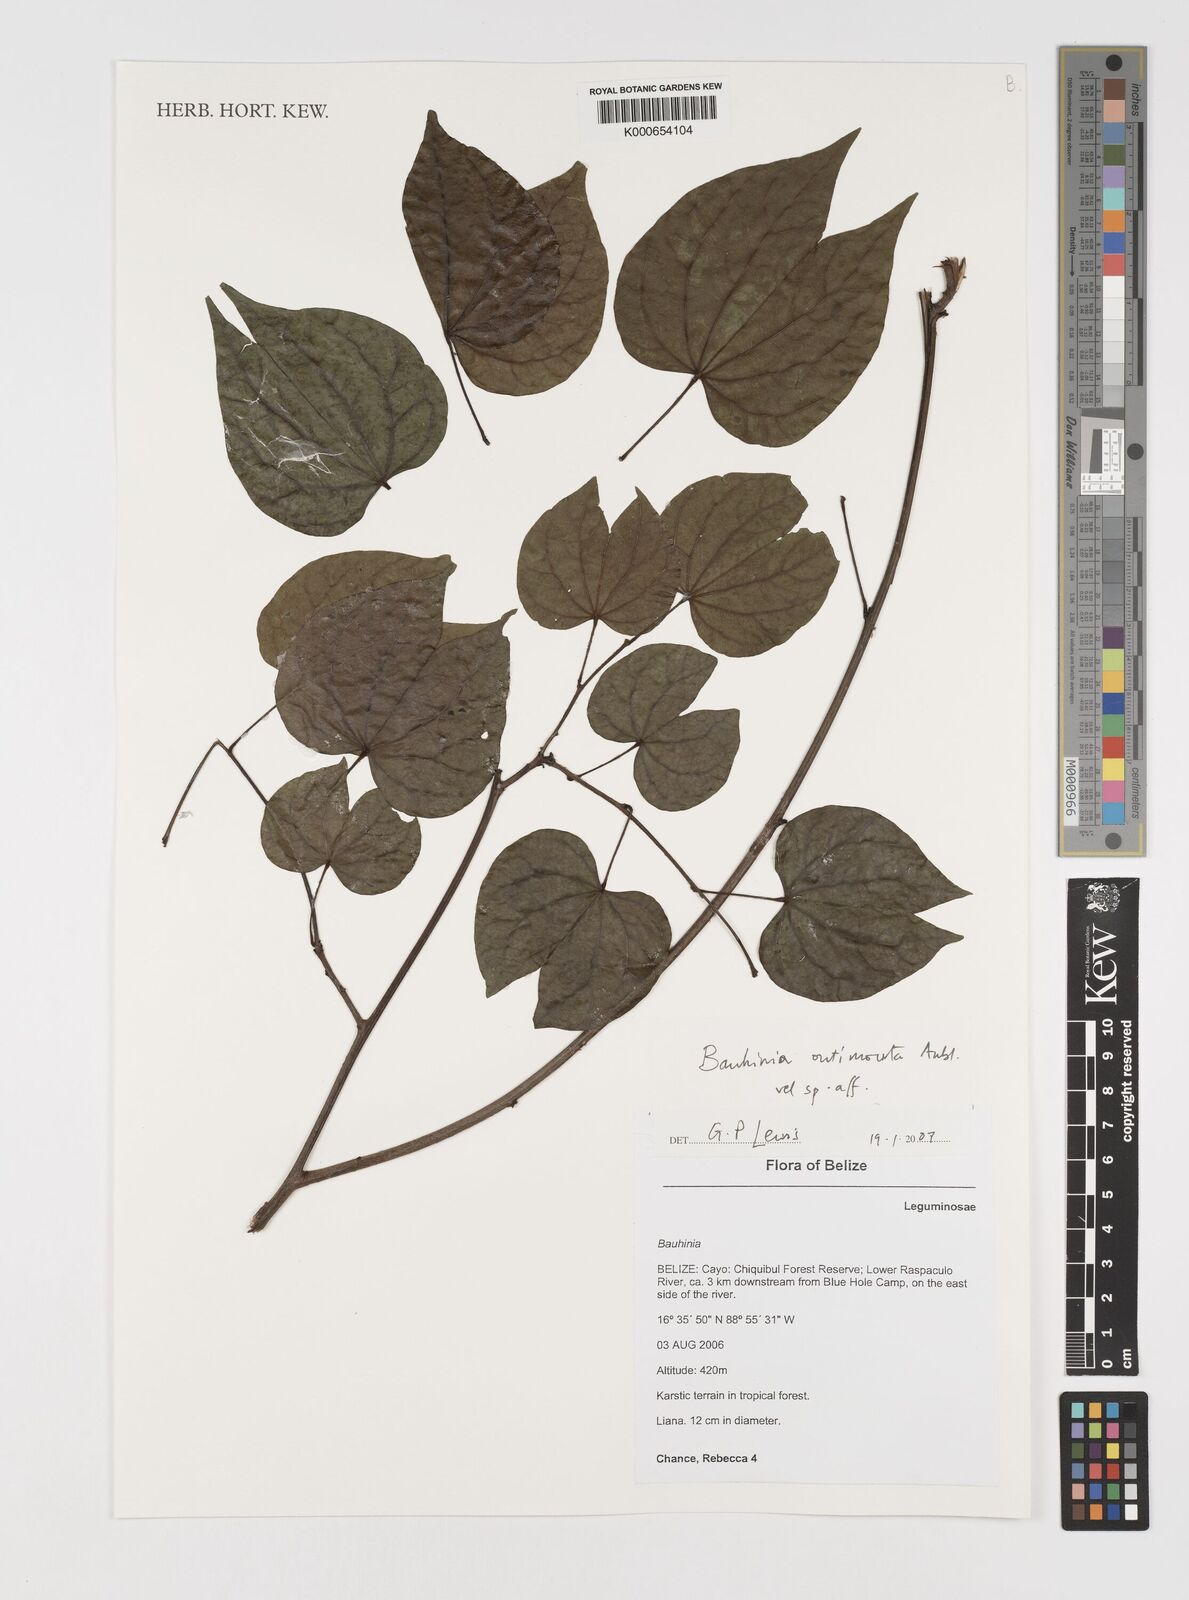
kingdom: Plantae
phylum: Tracheophyta
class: Magnoliopsida
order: Fabales
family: Fabaceae
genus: Schnella
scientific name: Schnella outimouta
